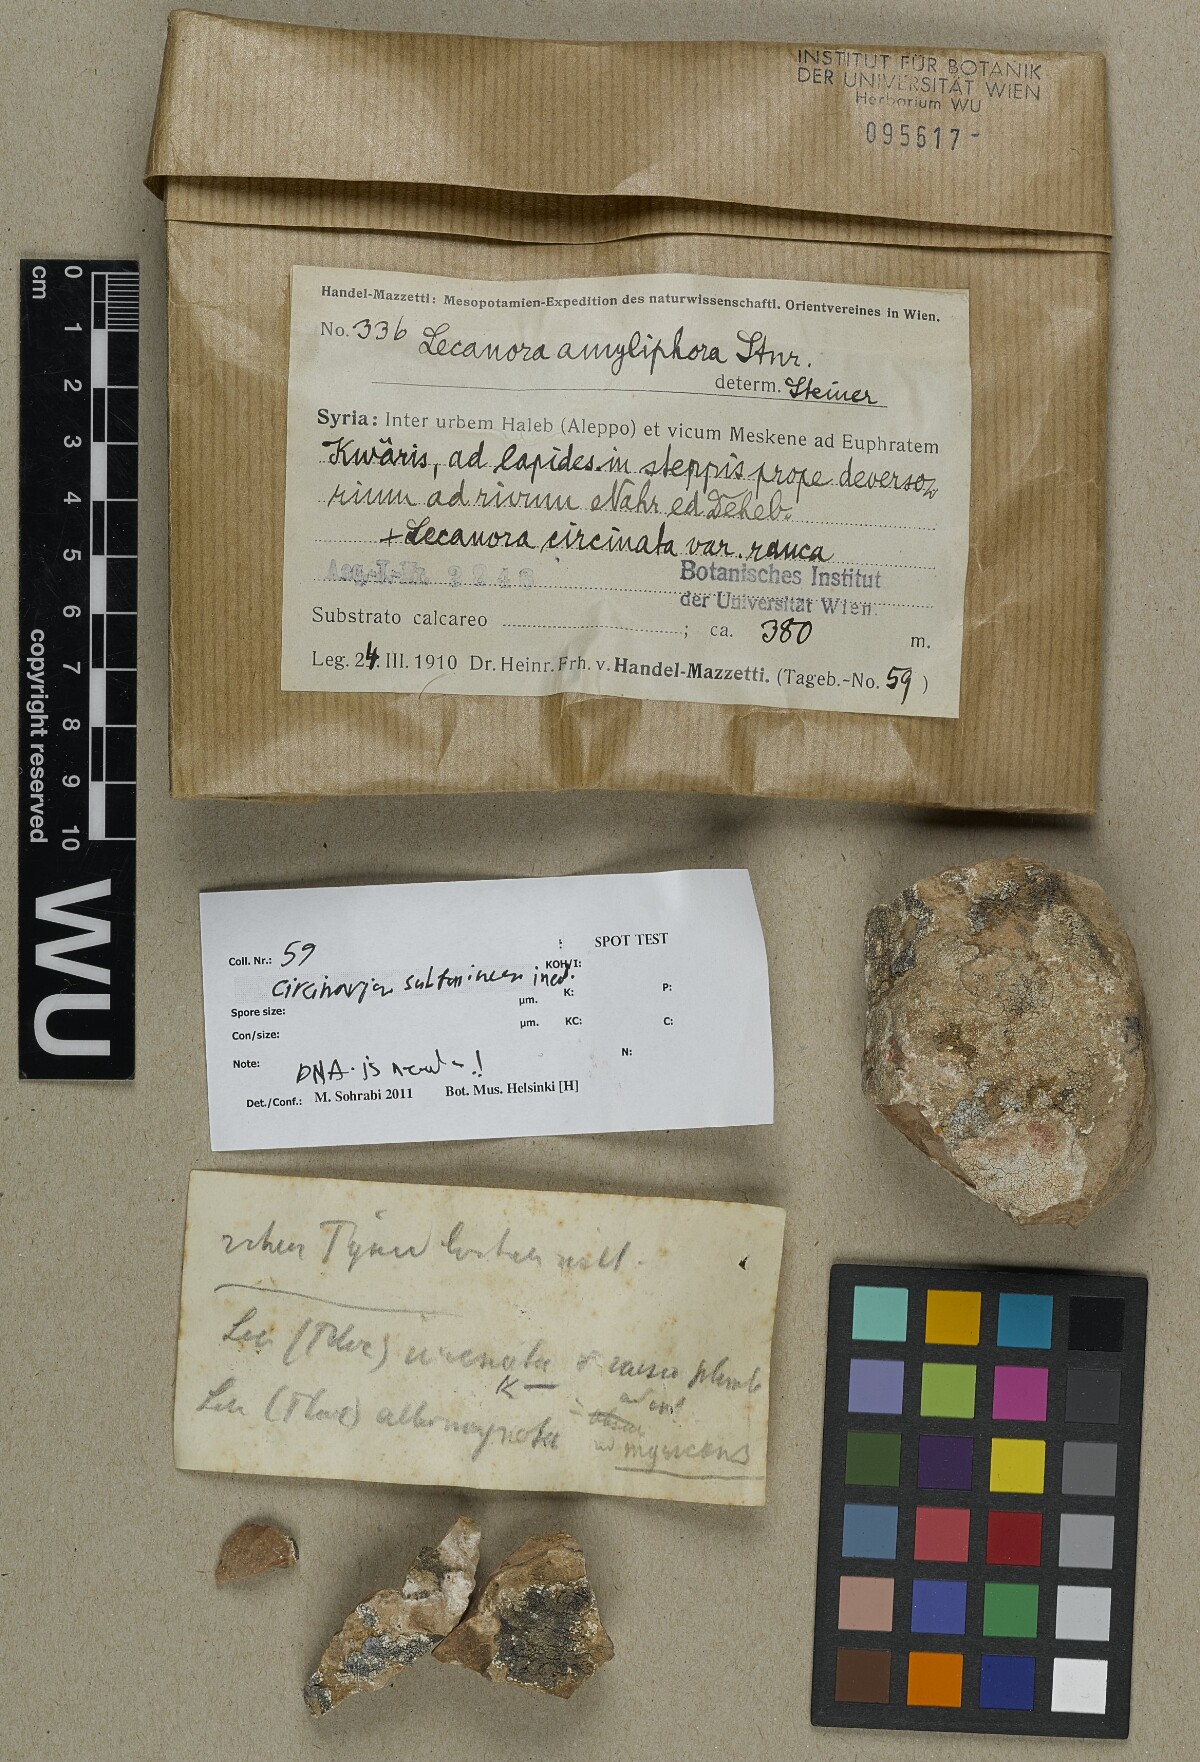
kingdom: Fungi
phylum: Ascomycota
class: Lecanoromycetes
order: Pertusariales
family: Megasporaceae
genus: Circinaria
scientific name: Circinaria
